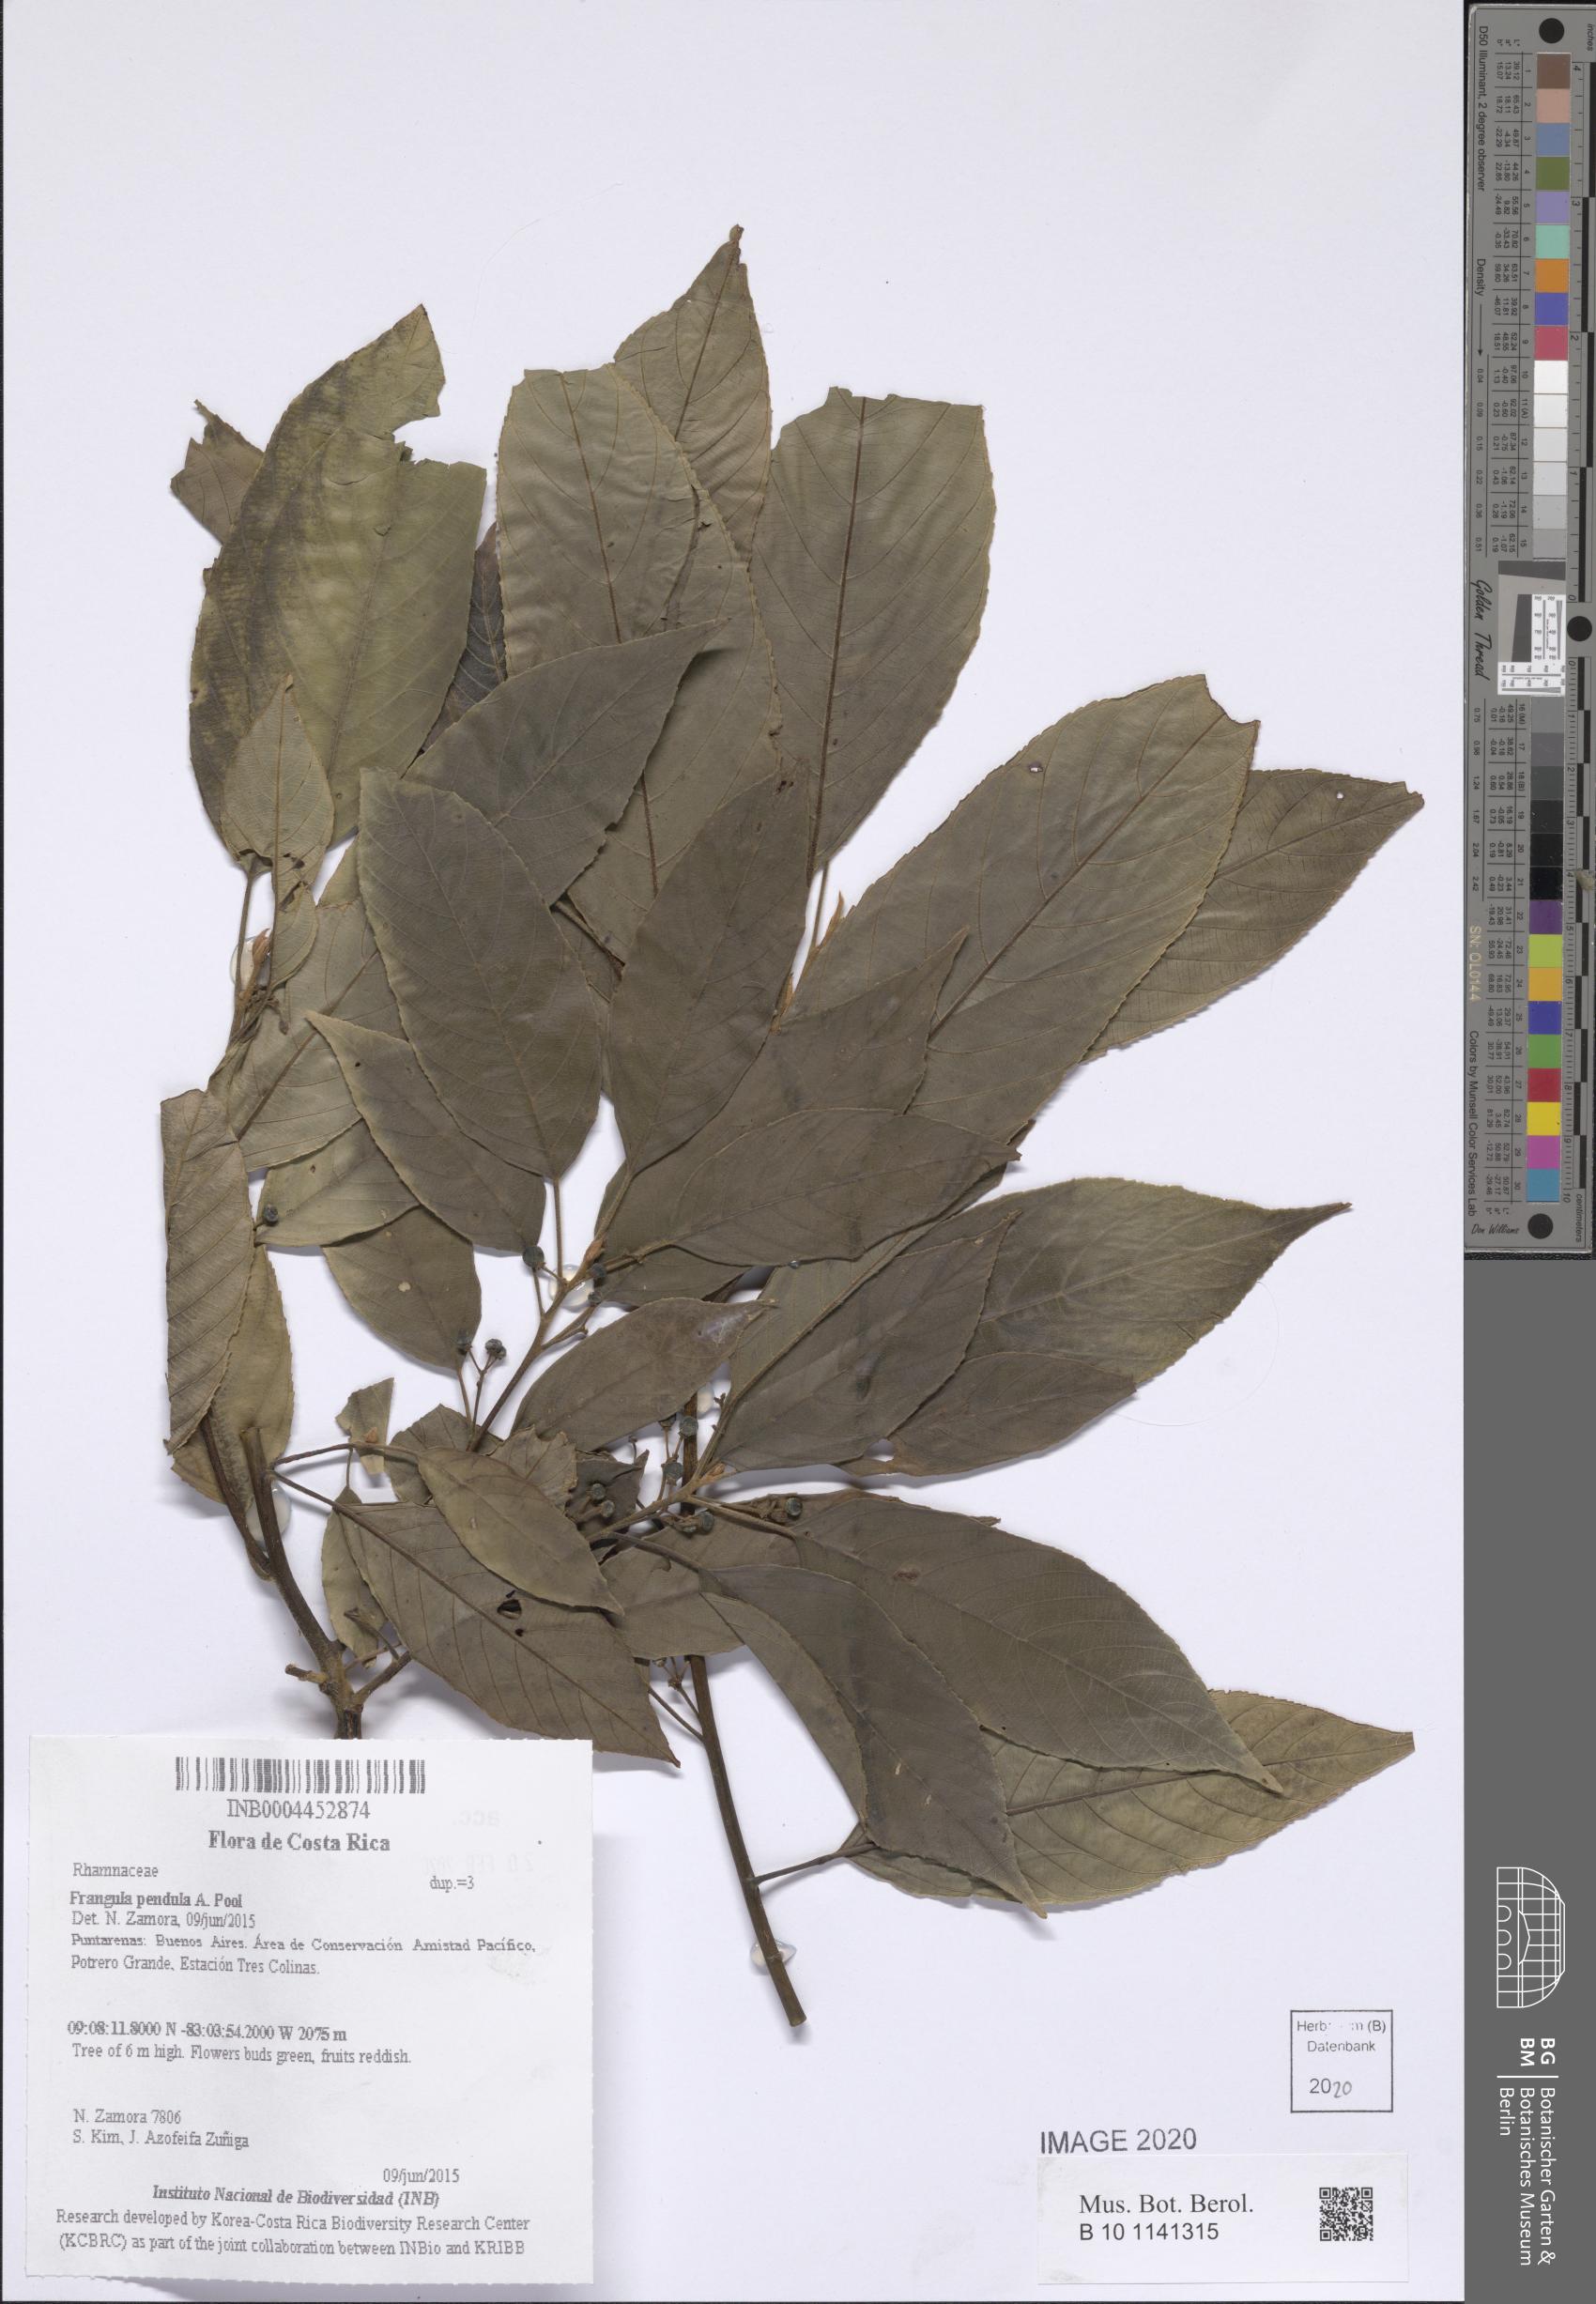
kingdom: Plantae
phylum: Tracheophyta
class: Magnoliopsida
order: Rosales
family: Rhamnaceae
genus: Frangula
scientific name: Frangula pendula
